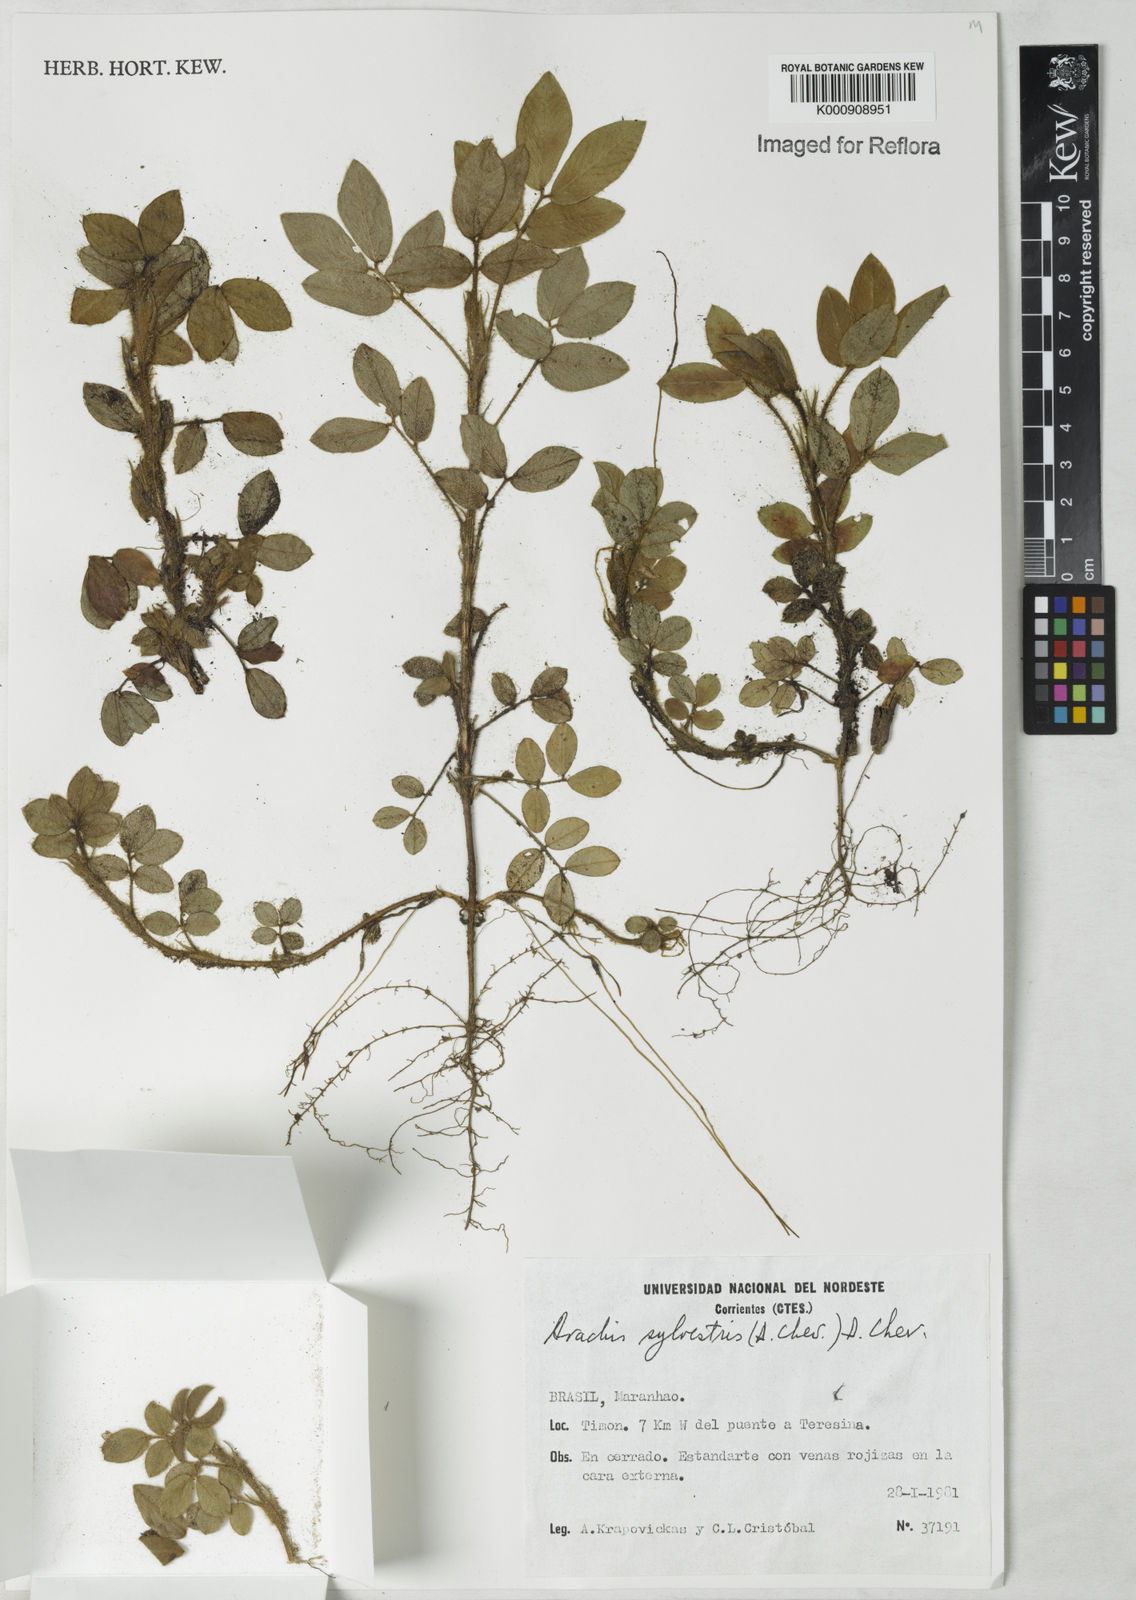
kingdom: Plantae
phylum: Tracheophyta
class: Magnoliopsida
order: Fabales
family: Fabaceae
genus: Arachis
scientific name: Arachis pusilla
